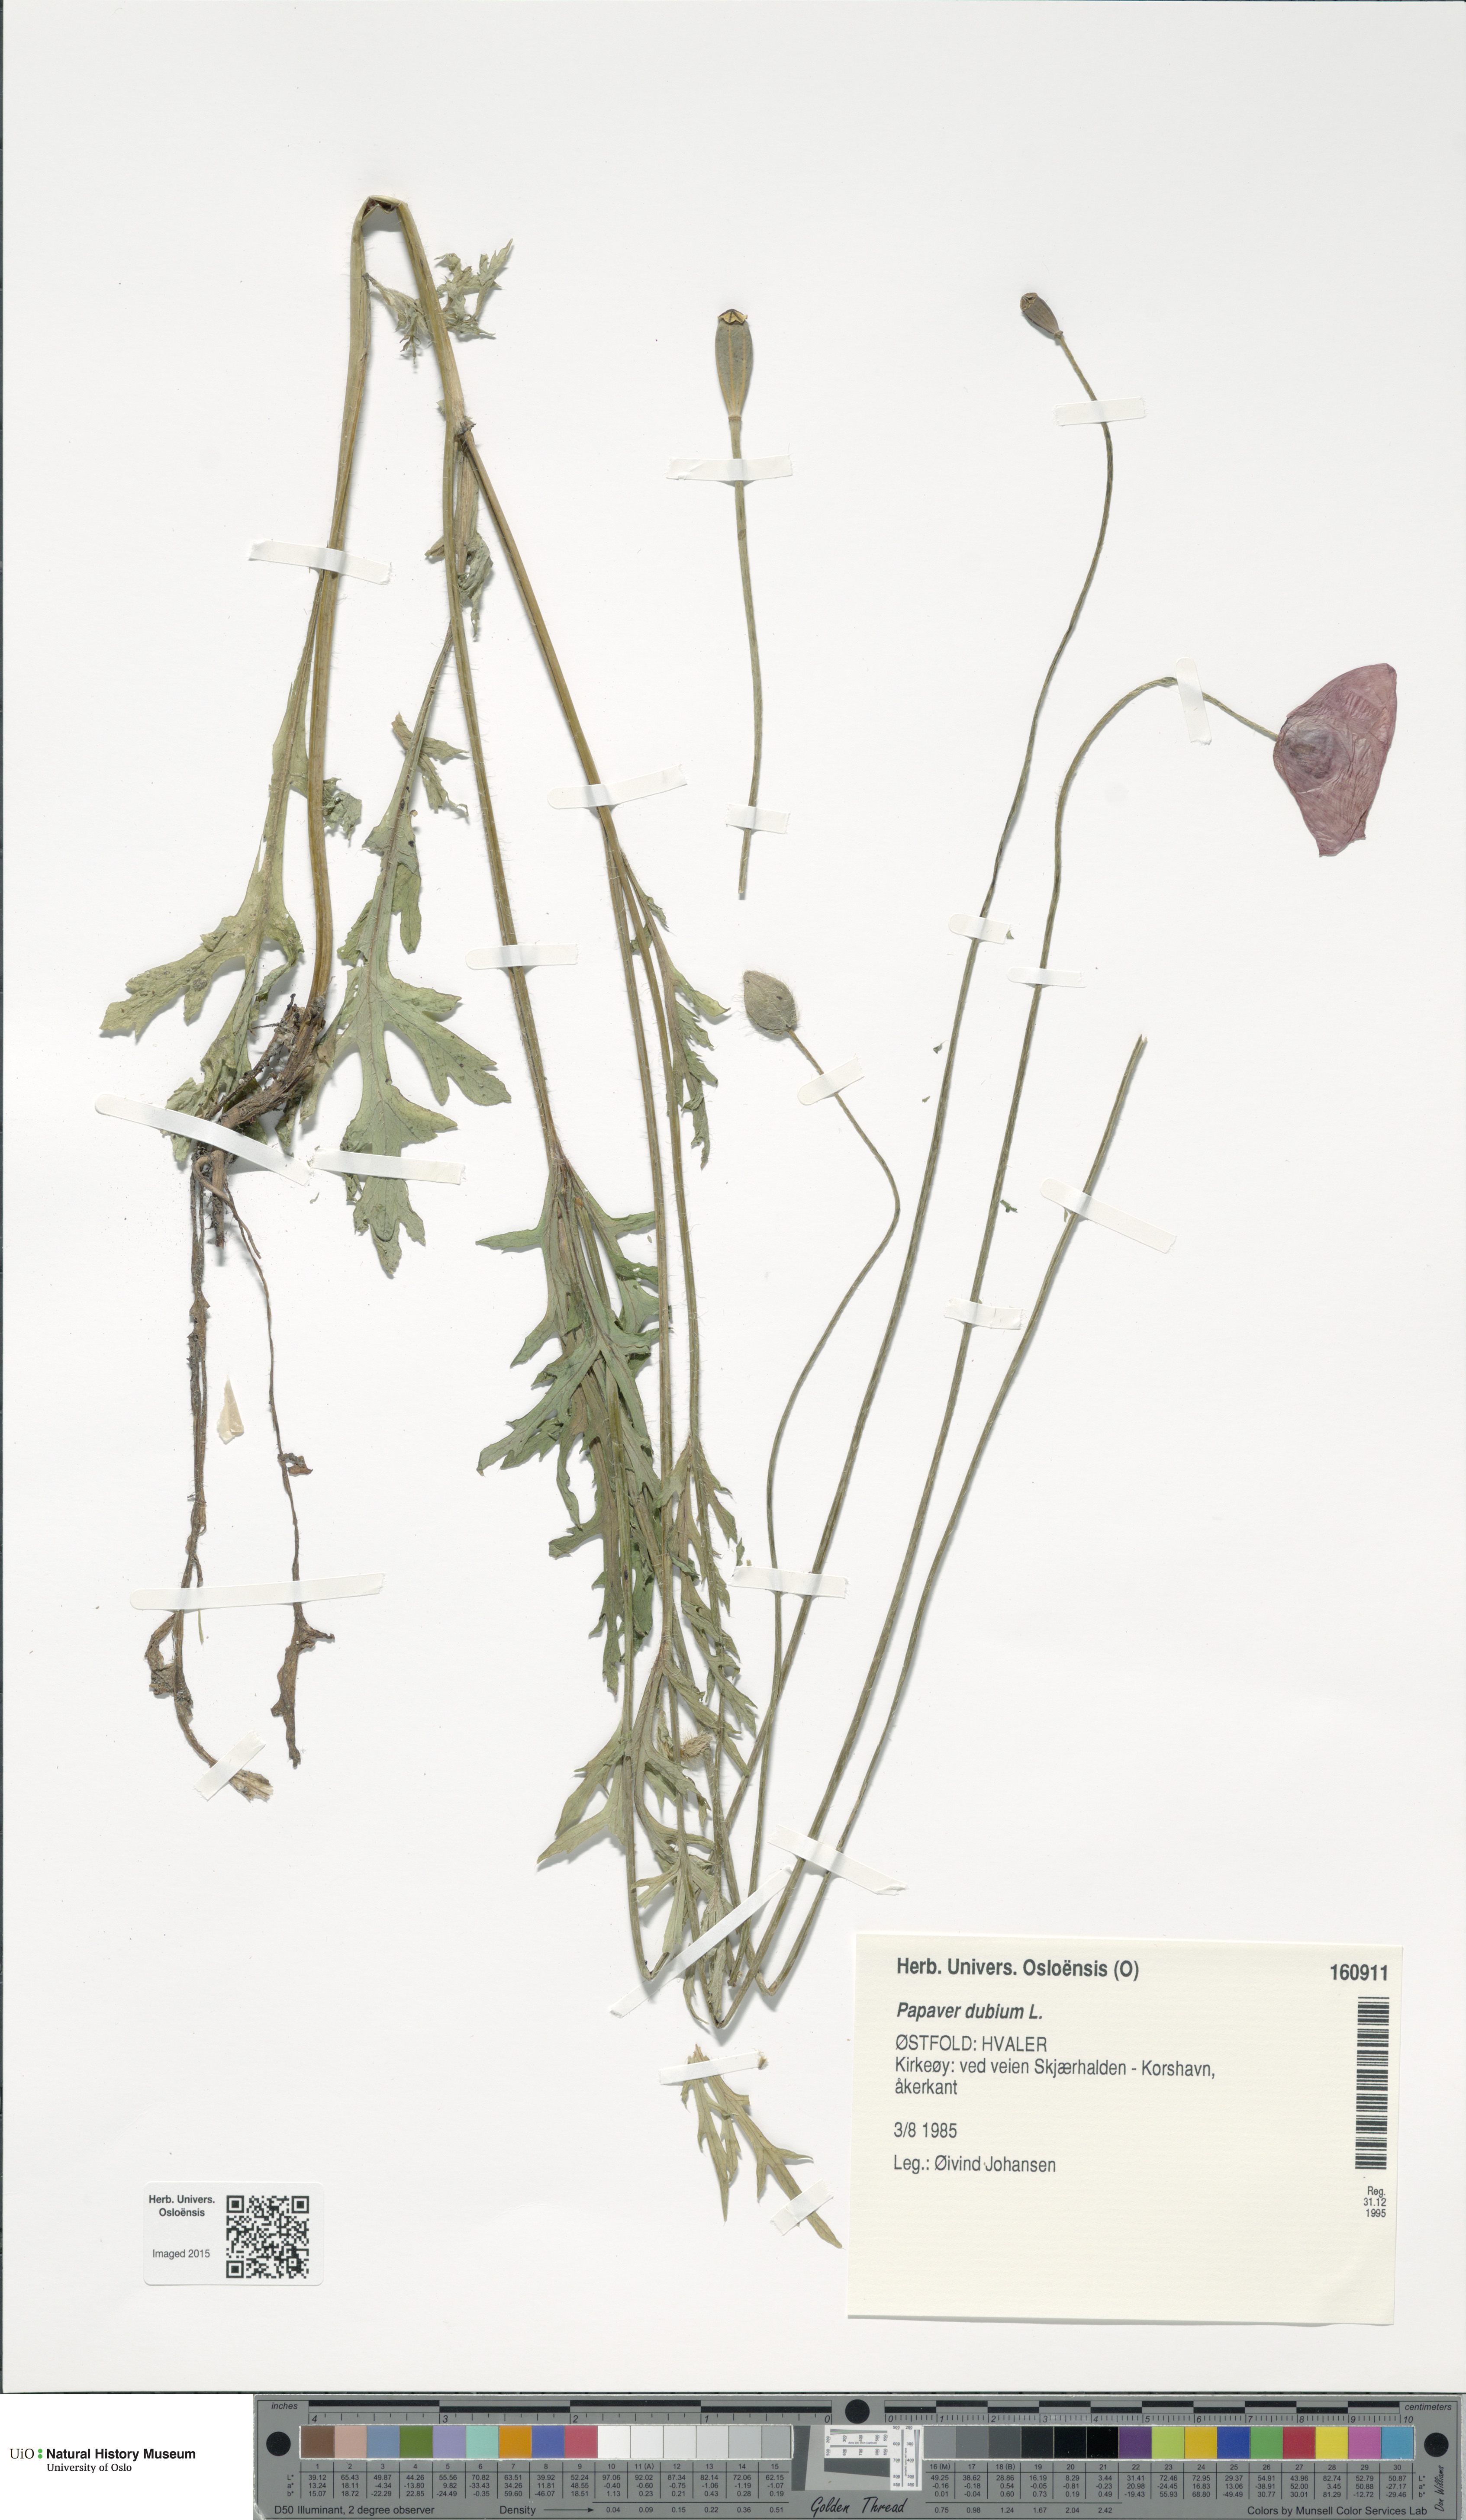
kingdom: Plantae
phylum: Tracheophyta
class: Magnoliopsida
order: Ranunculales
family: Papaveraceae
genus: Papaver
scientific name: Papaver dubium
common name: Long-headed poppy
